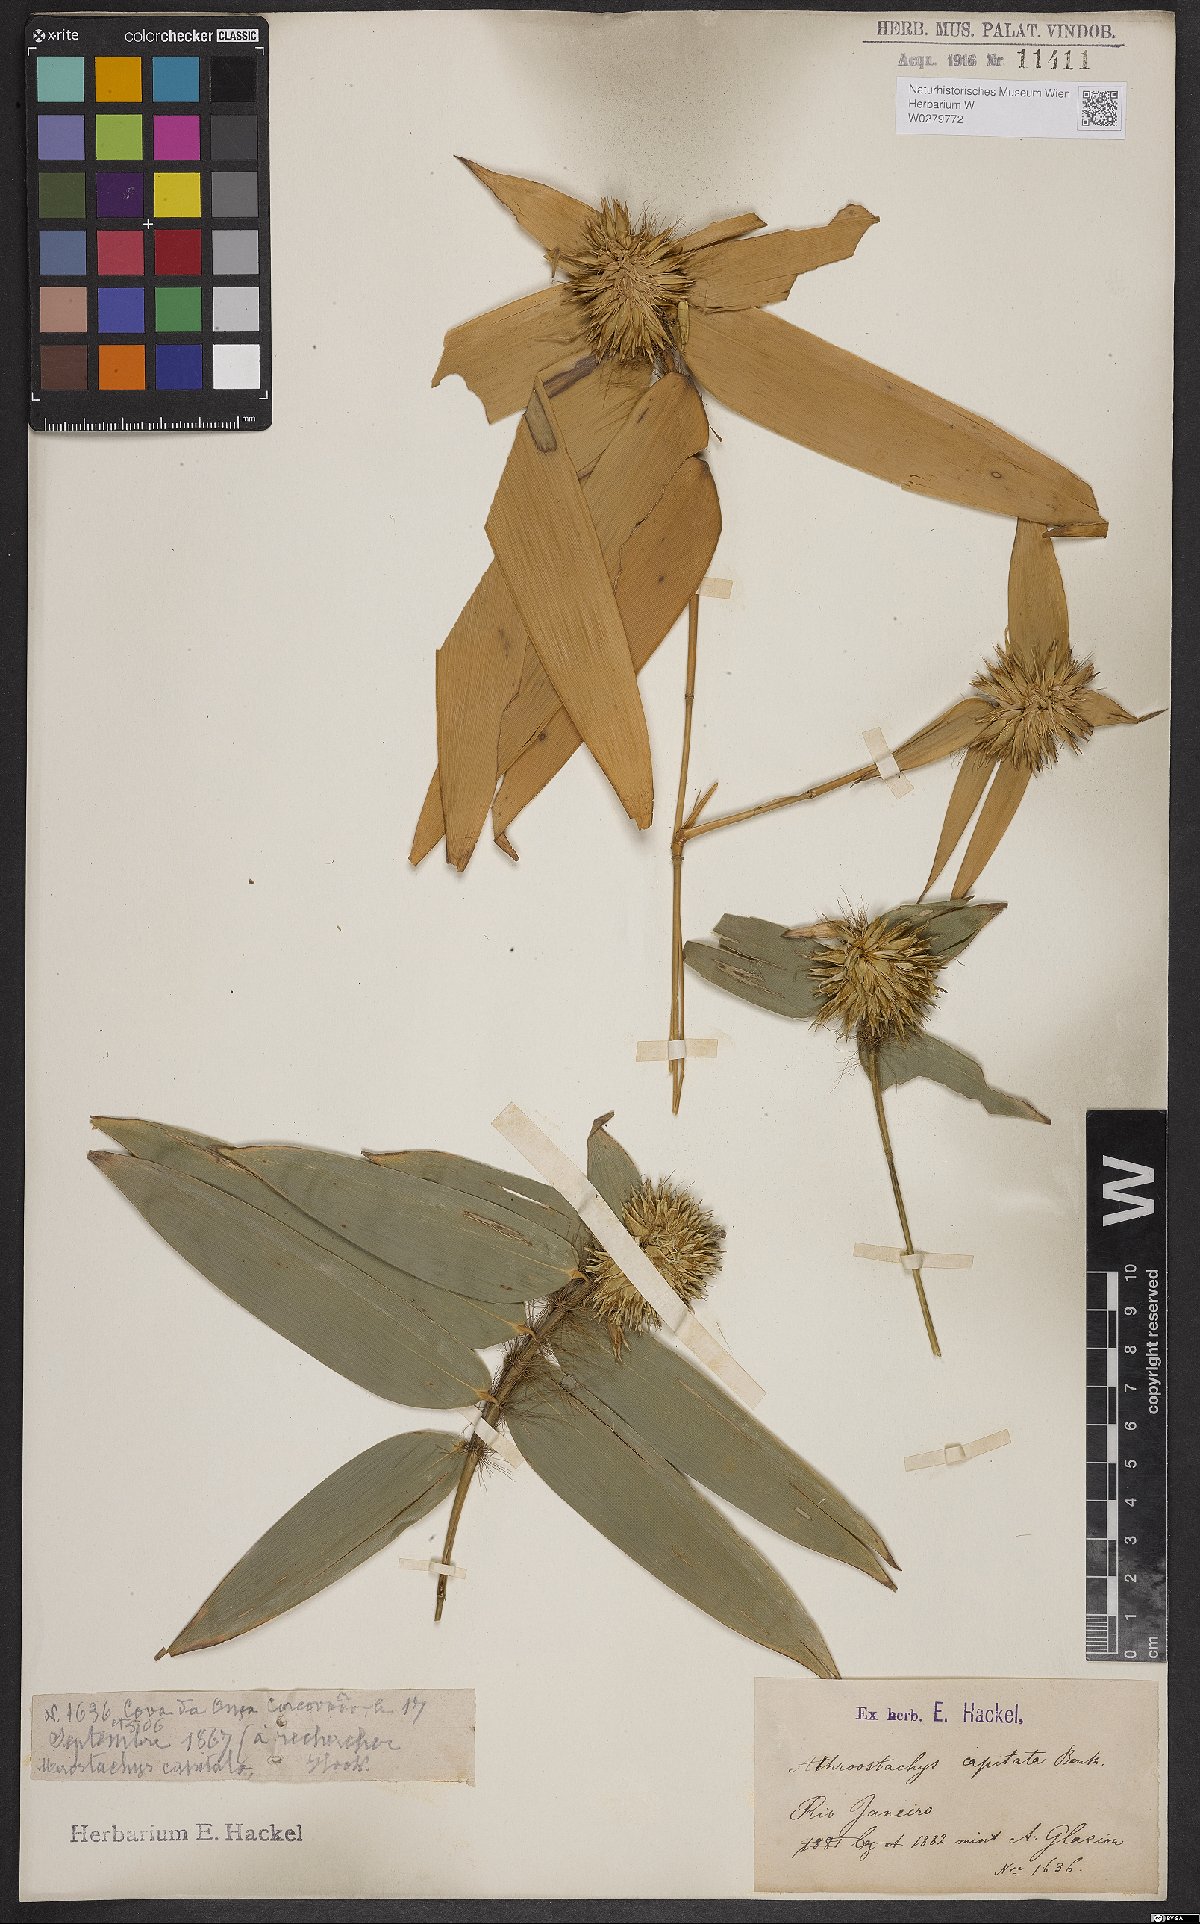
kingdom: Plantae
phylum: Tracheophyta
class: Liliopsida
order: Poales
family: Poaceae
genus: Athroostachys
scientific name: Athroostachys capitata
